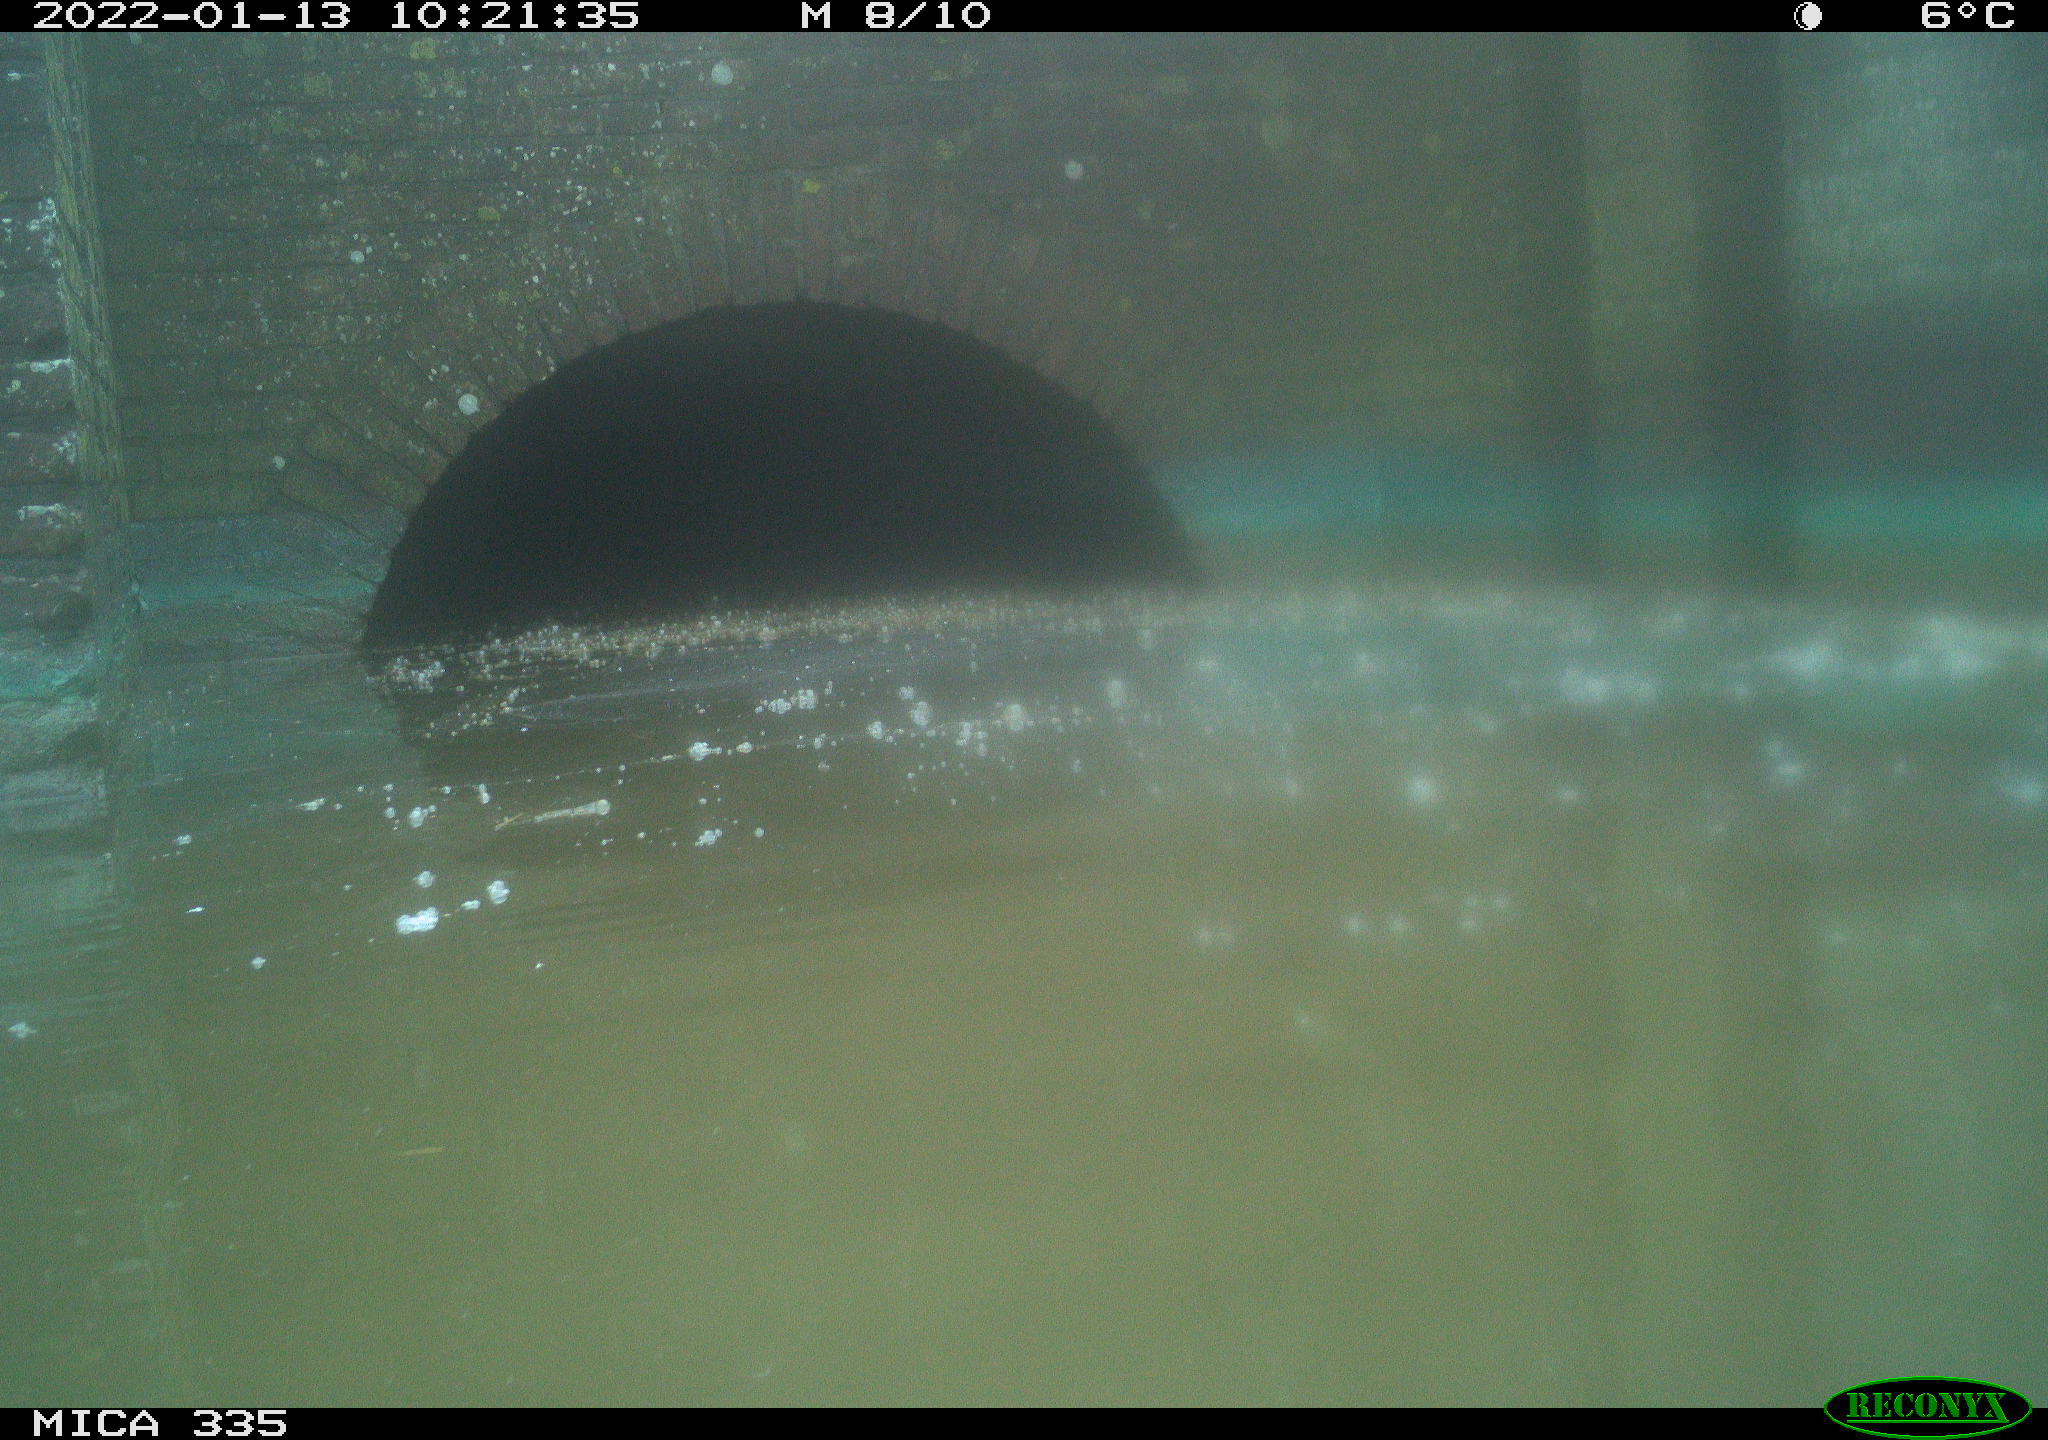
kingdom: Animalia
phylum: Chordata
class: Aves
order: Gruiformes
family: Rallidae
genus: Fulica
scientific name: Fulica atra
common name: Eurasian coot
